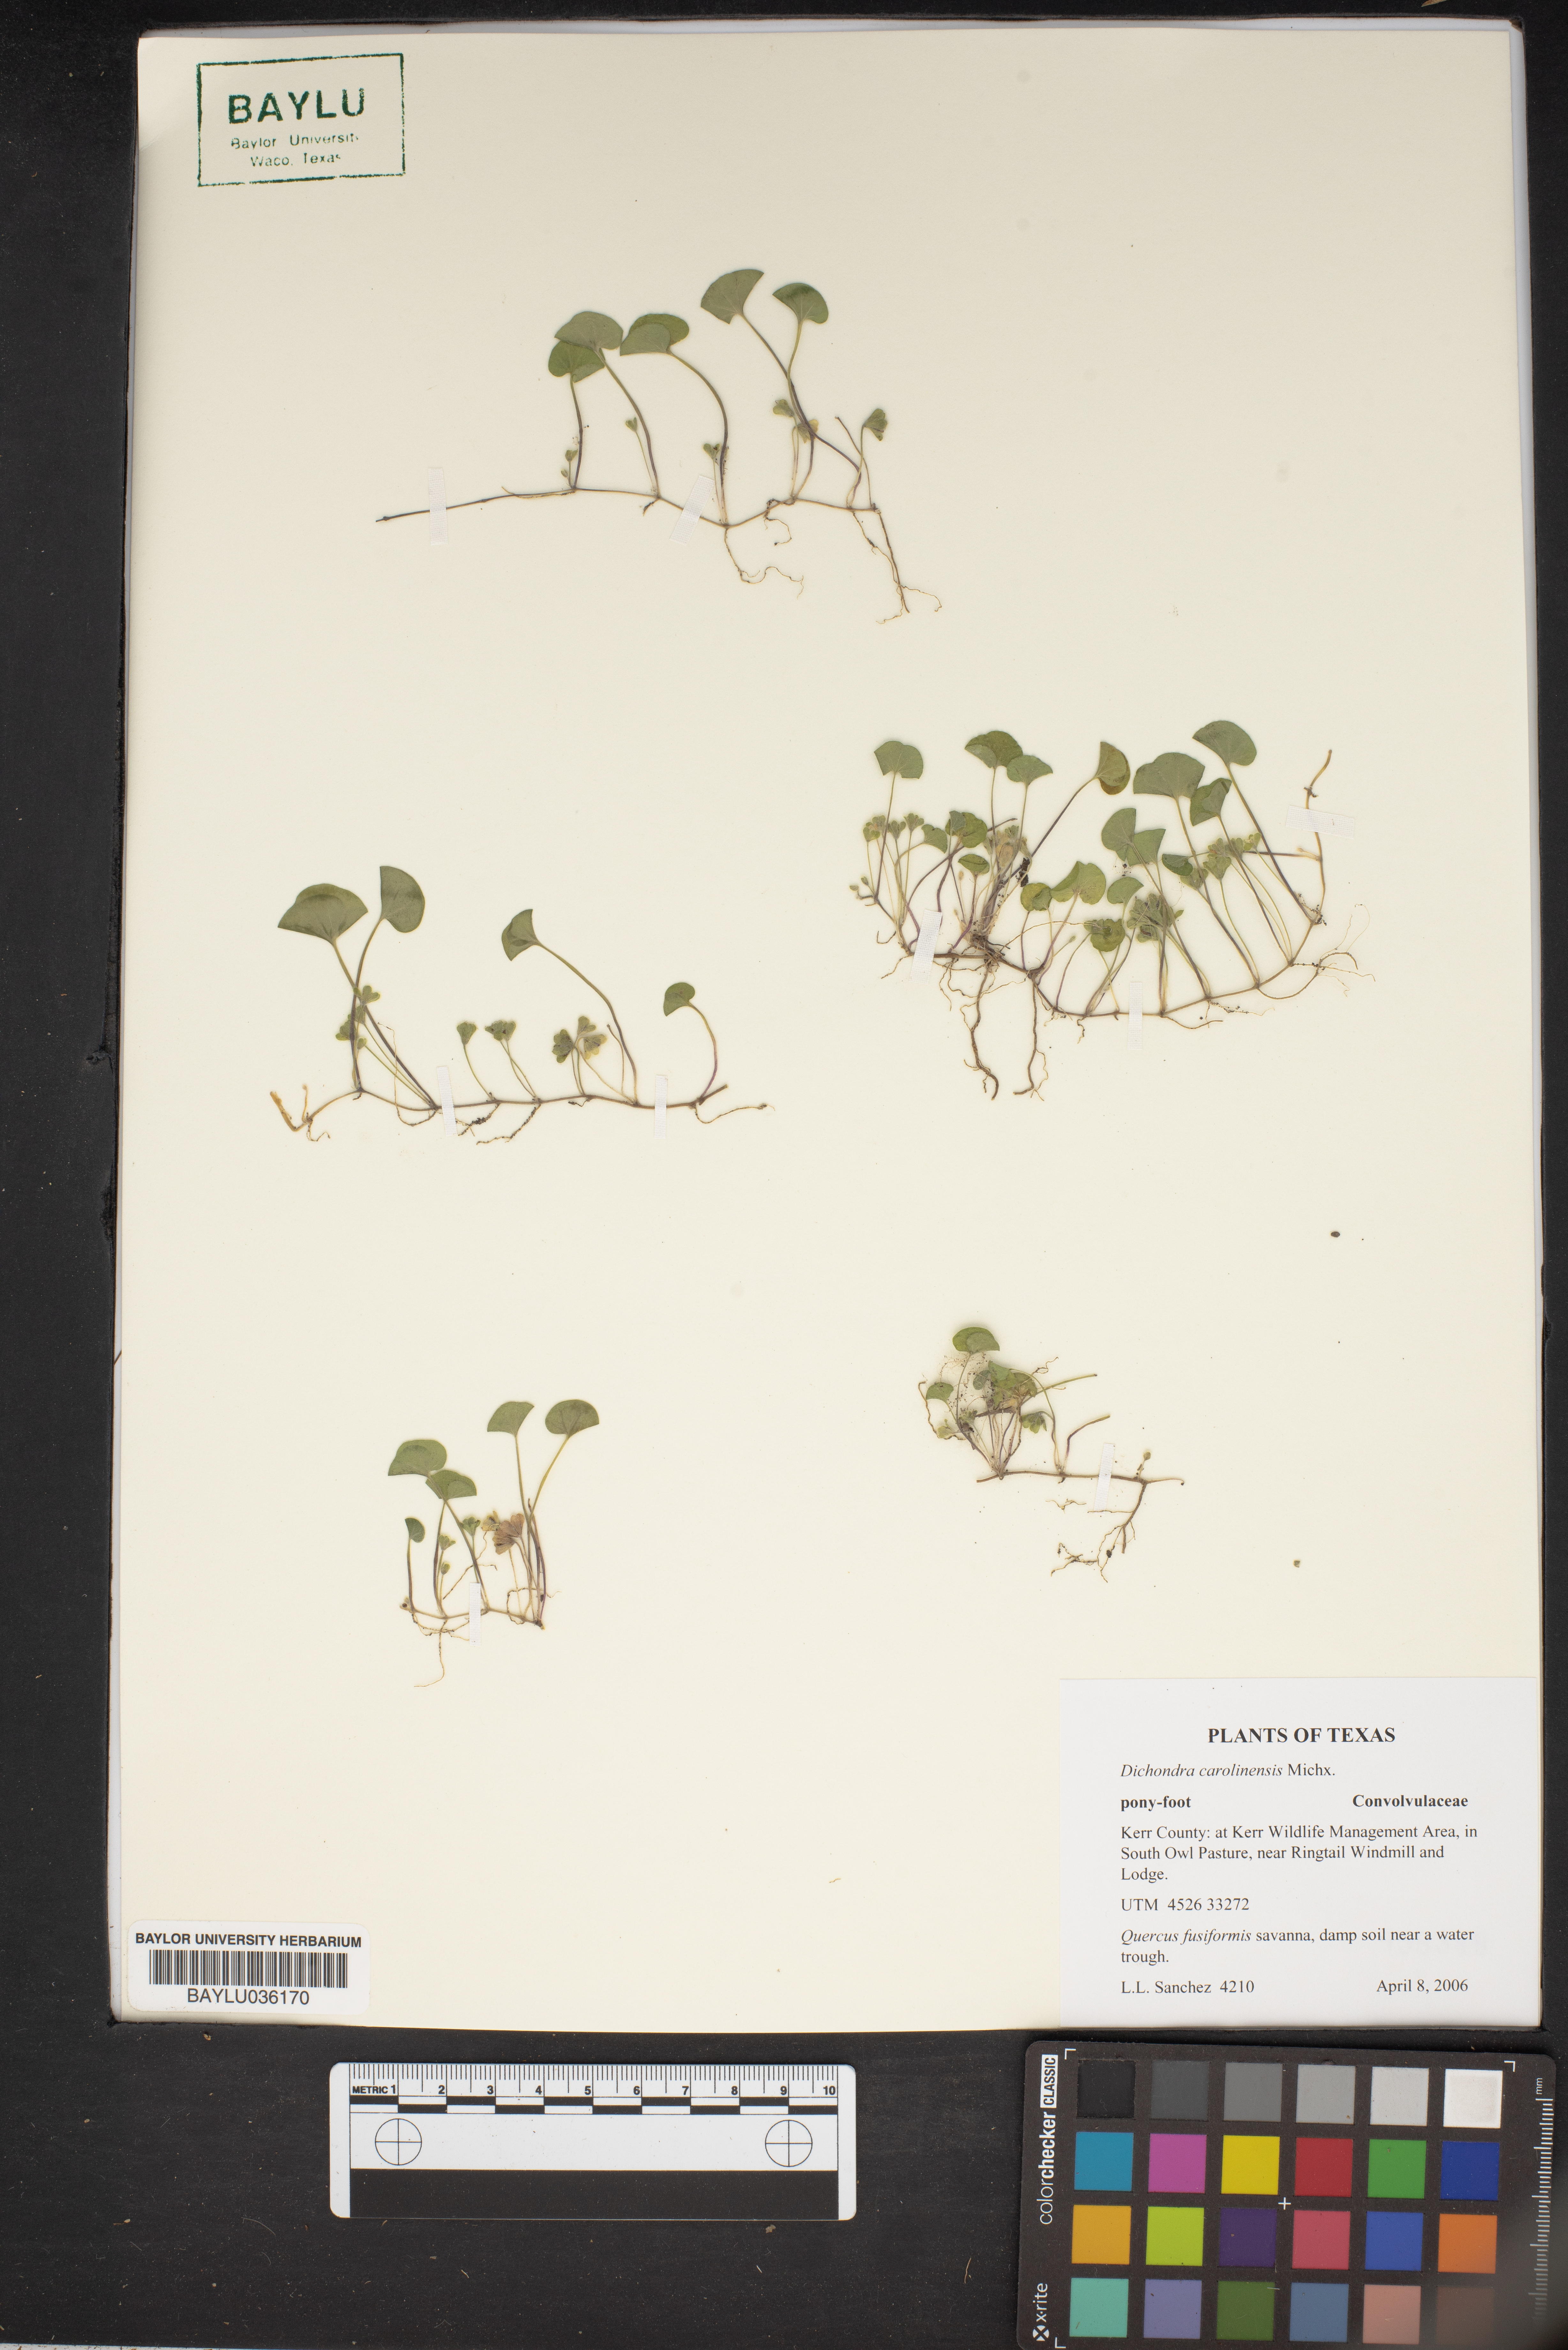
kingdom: Plantae
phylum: Tracheophyta
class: Magnoliopsida
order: Solanales
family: Convolvulaceae
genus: Dichondra
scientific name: Dichondra carolinensis
